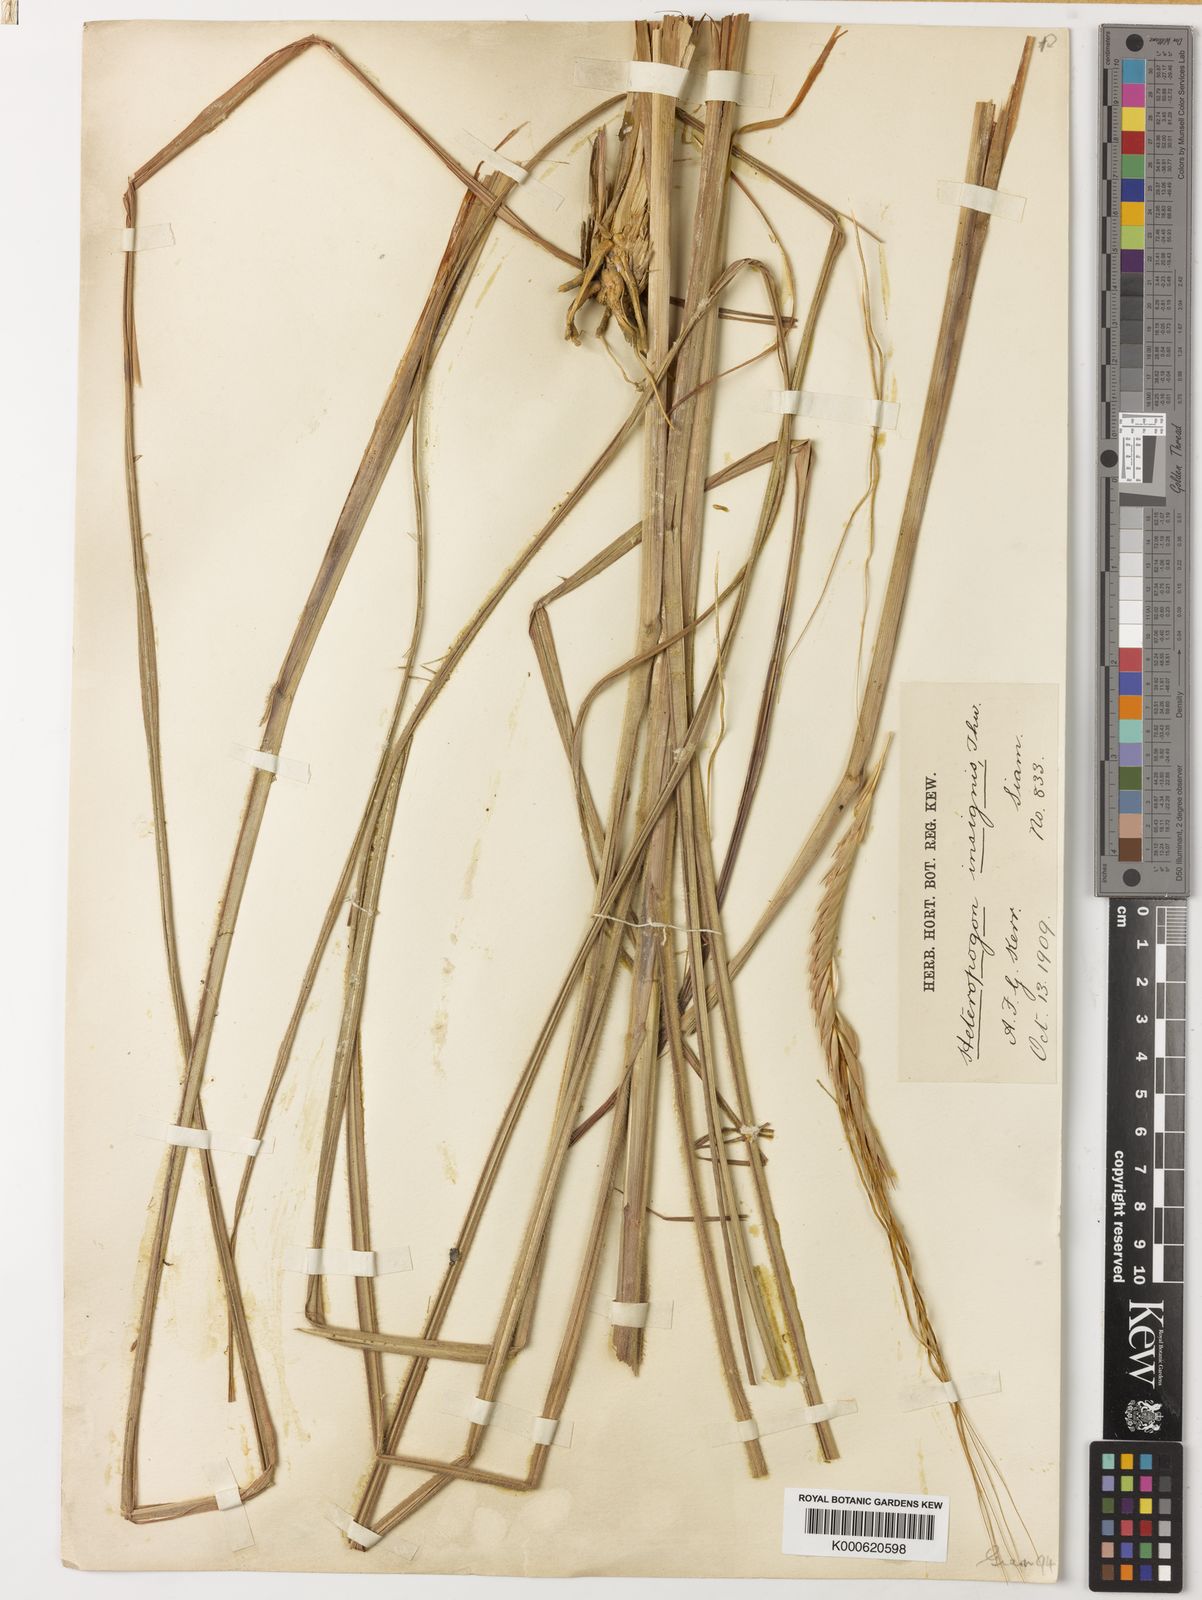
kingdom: Plantae
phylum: Tracheophyta
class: Liliopsida
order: Poales
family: Poaceae
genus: Heteropogon
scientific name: Heteropogon triticeus
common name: Sugar grass
